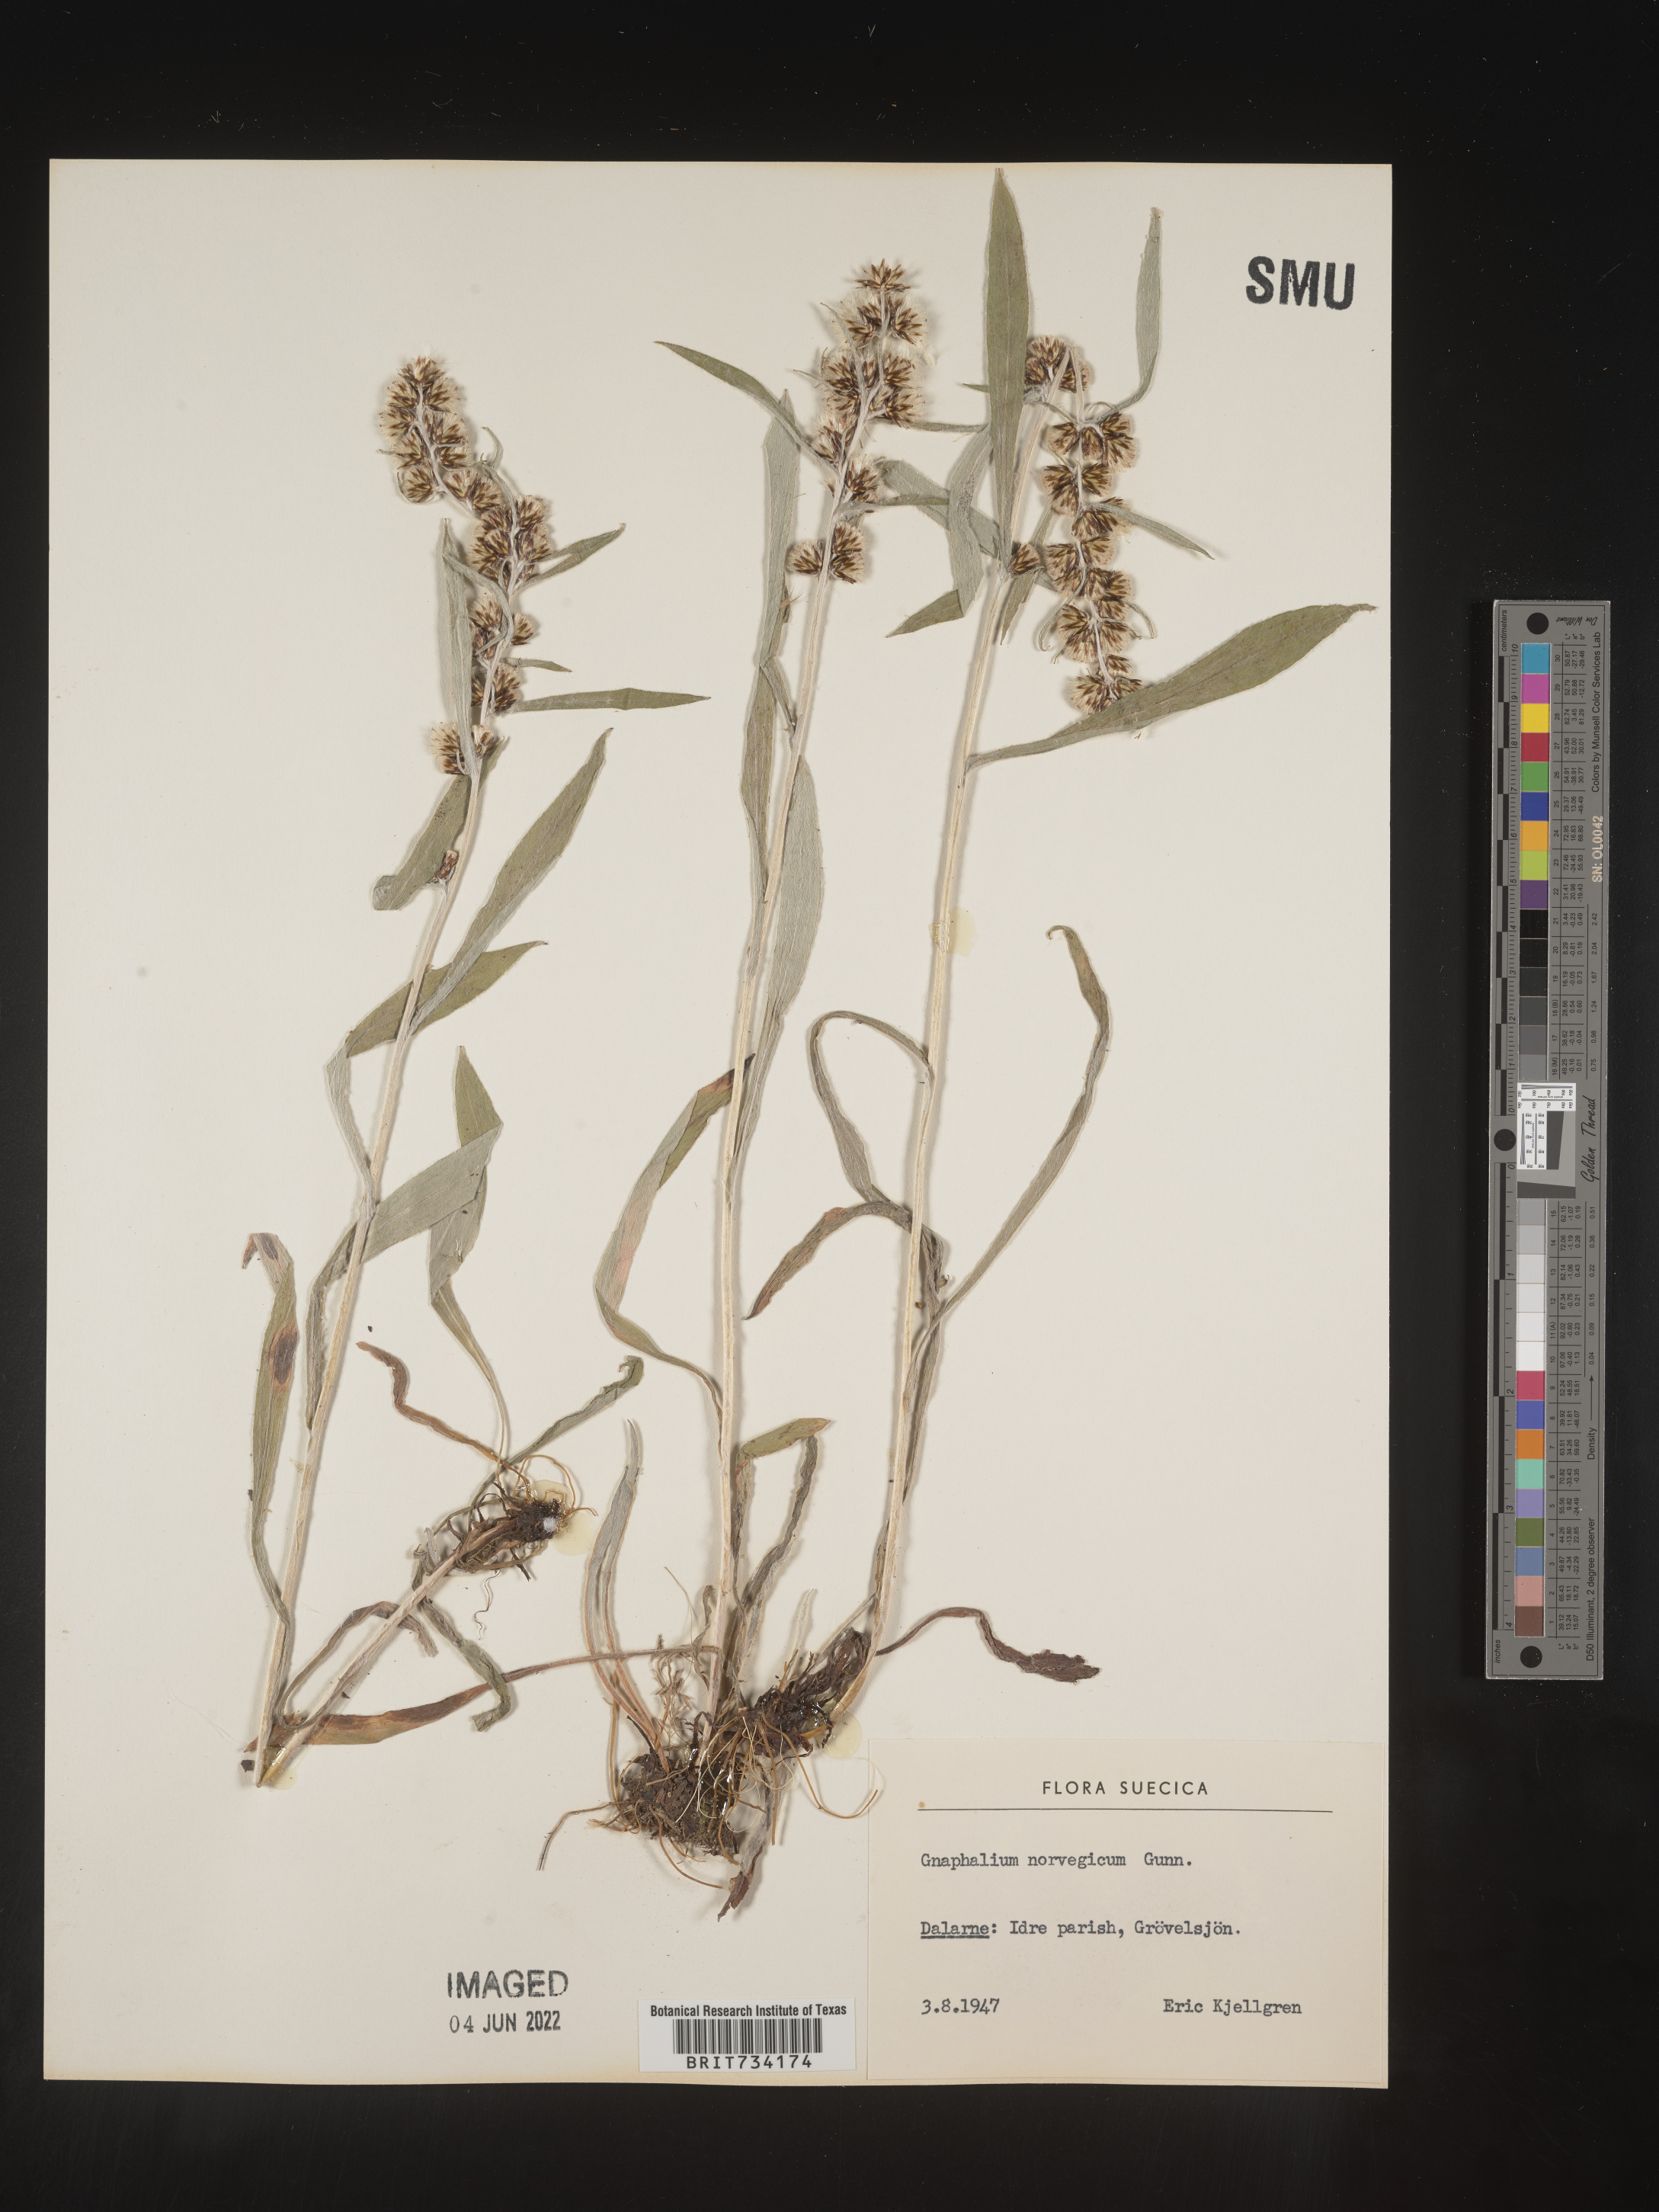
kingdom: Plantae
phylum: Tracheophyta
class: Magnoliopsida
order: Asterales
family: Asteraceae
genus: Omalotheca
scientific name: Omalotheca norvegica
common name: Norwegian arctic-cudweed
